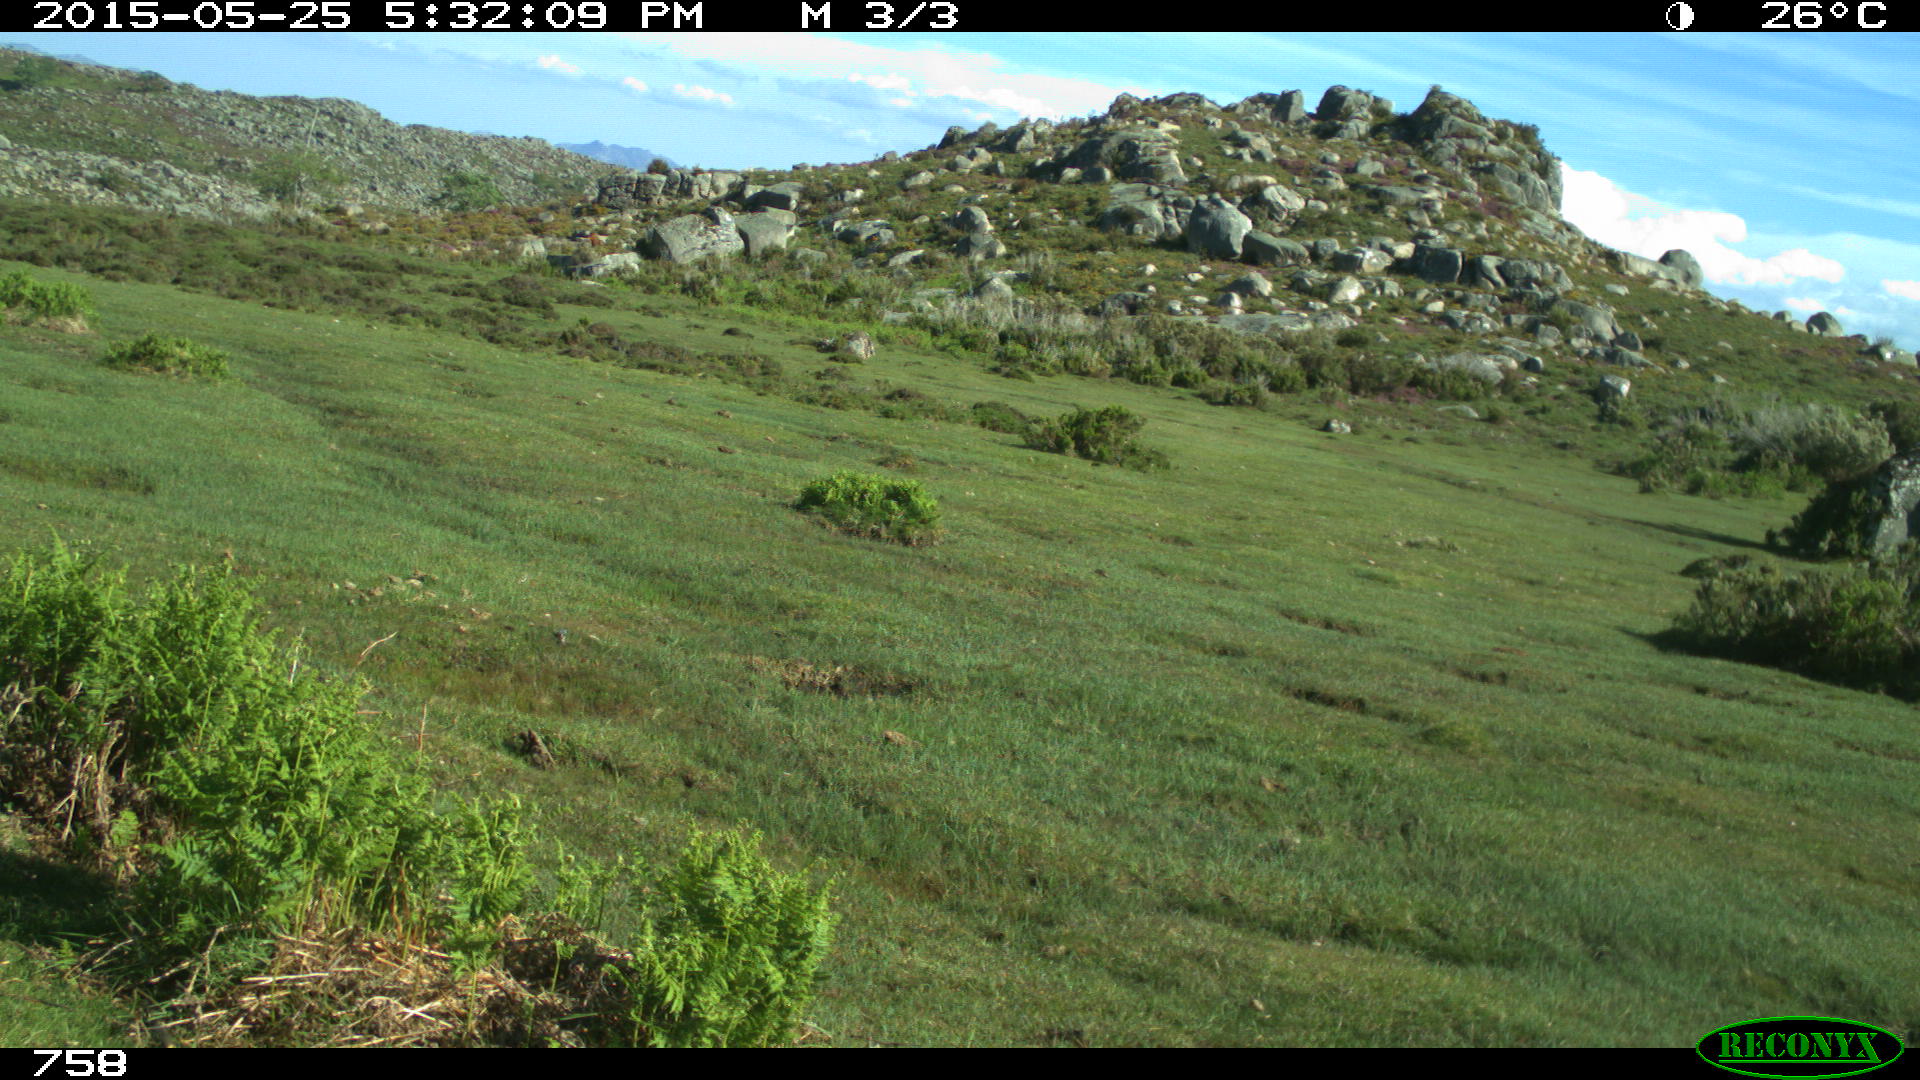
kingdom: Animalia
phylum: Chordata
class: Mammalia
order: Perissodactyla
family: Equidae
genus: Equus
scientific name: Equus caballus
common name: Horse
